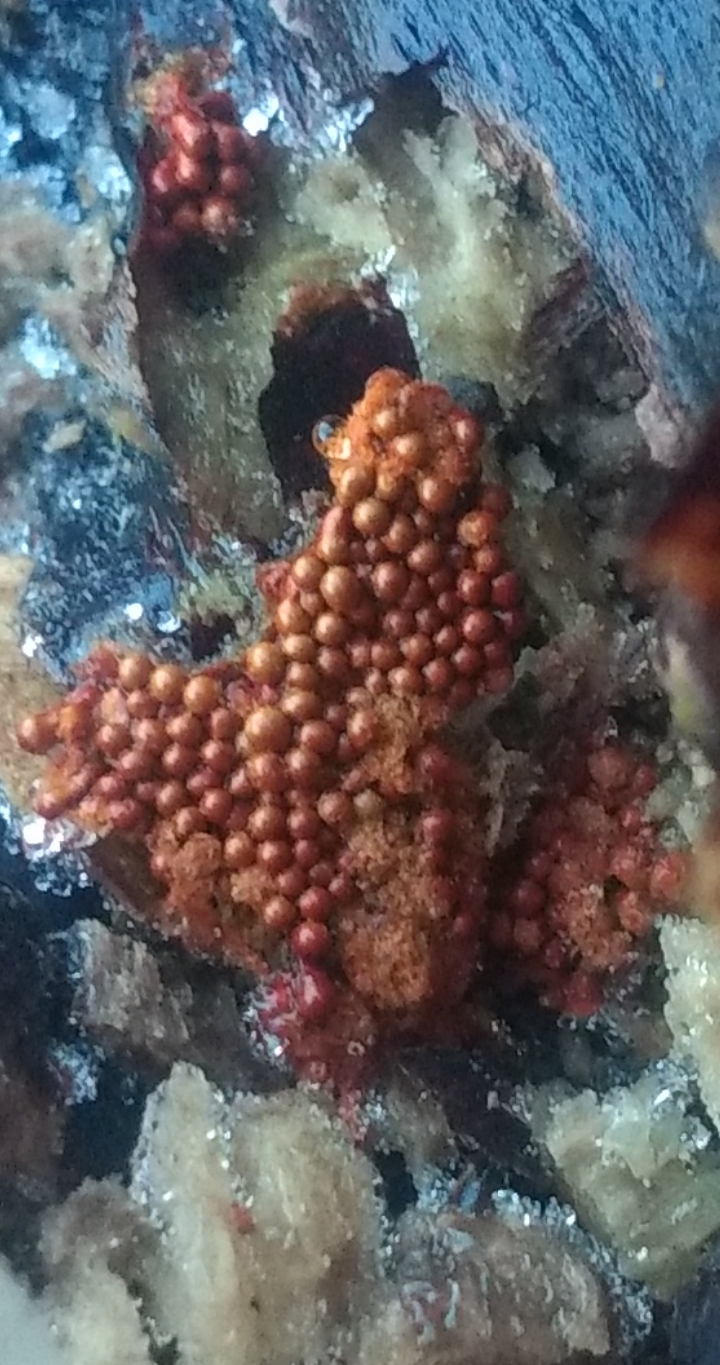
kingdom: Protozoa
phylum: Mycetozoa
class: Myxomycetes
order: Trichiales
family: Trichiaceae
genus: Metatrichia
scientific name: Metatrichia vesparia
